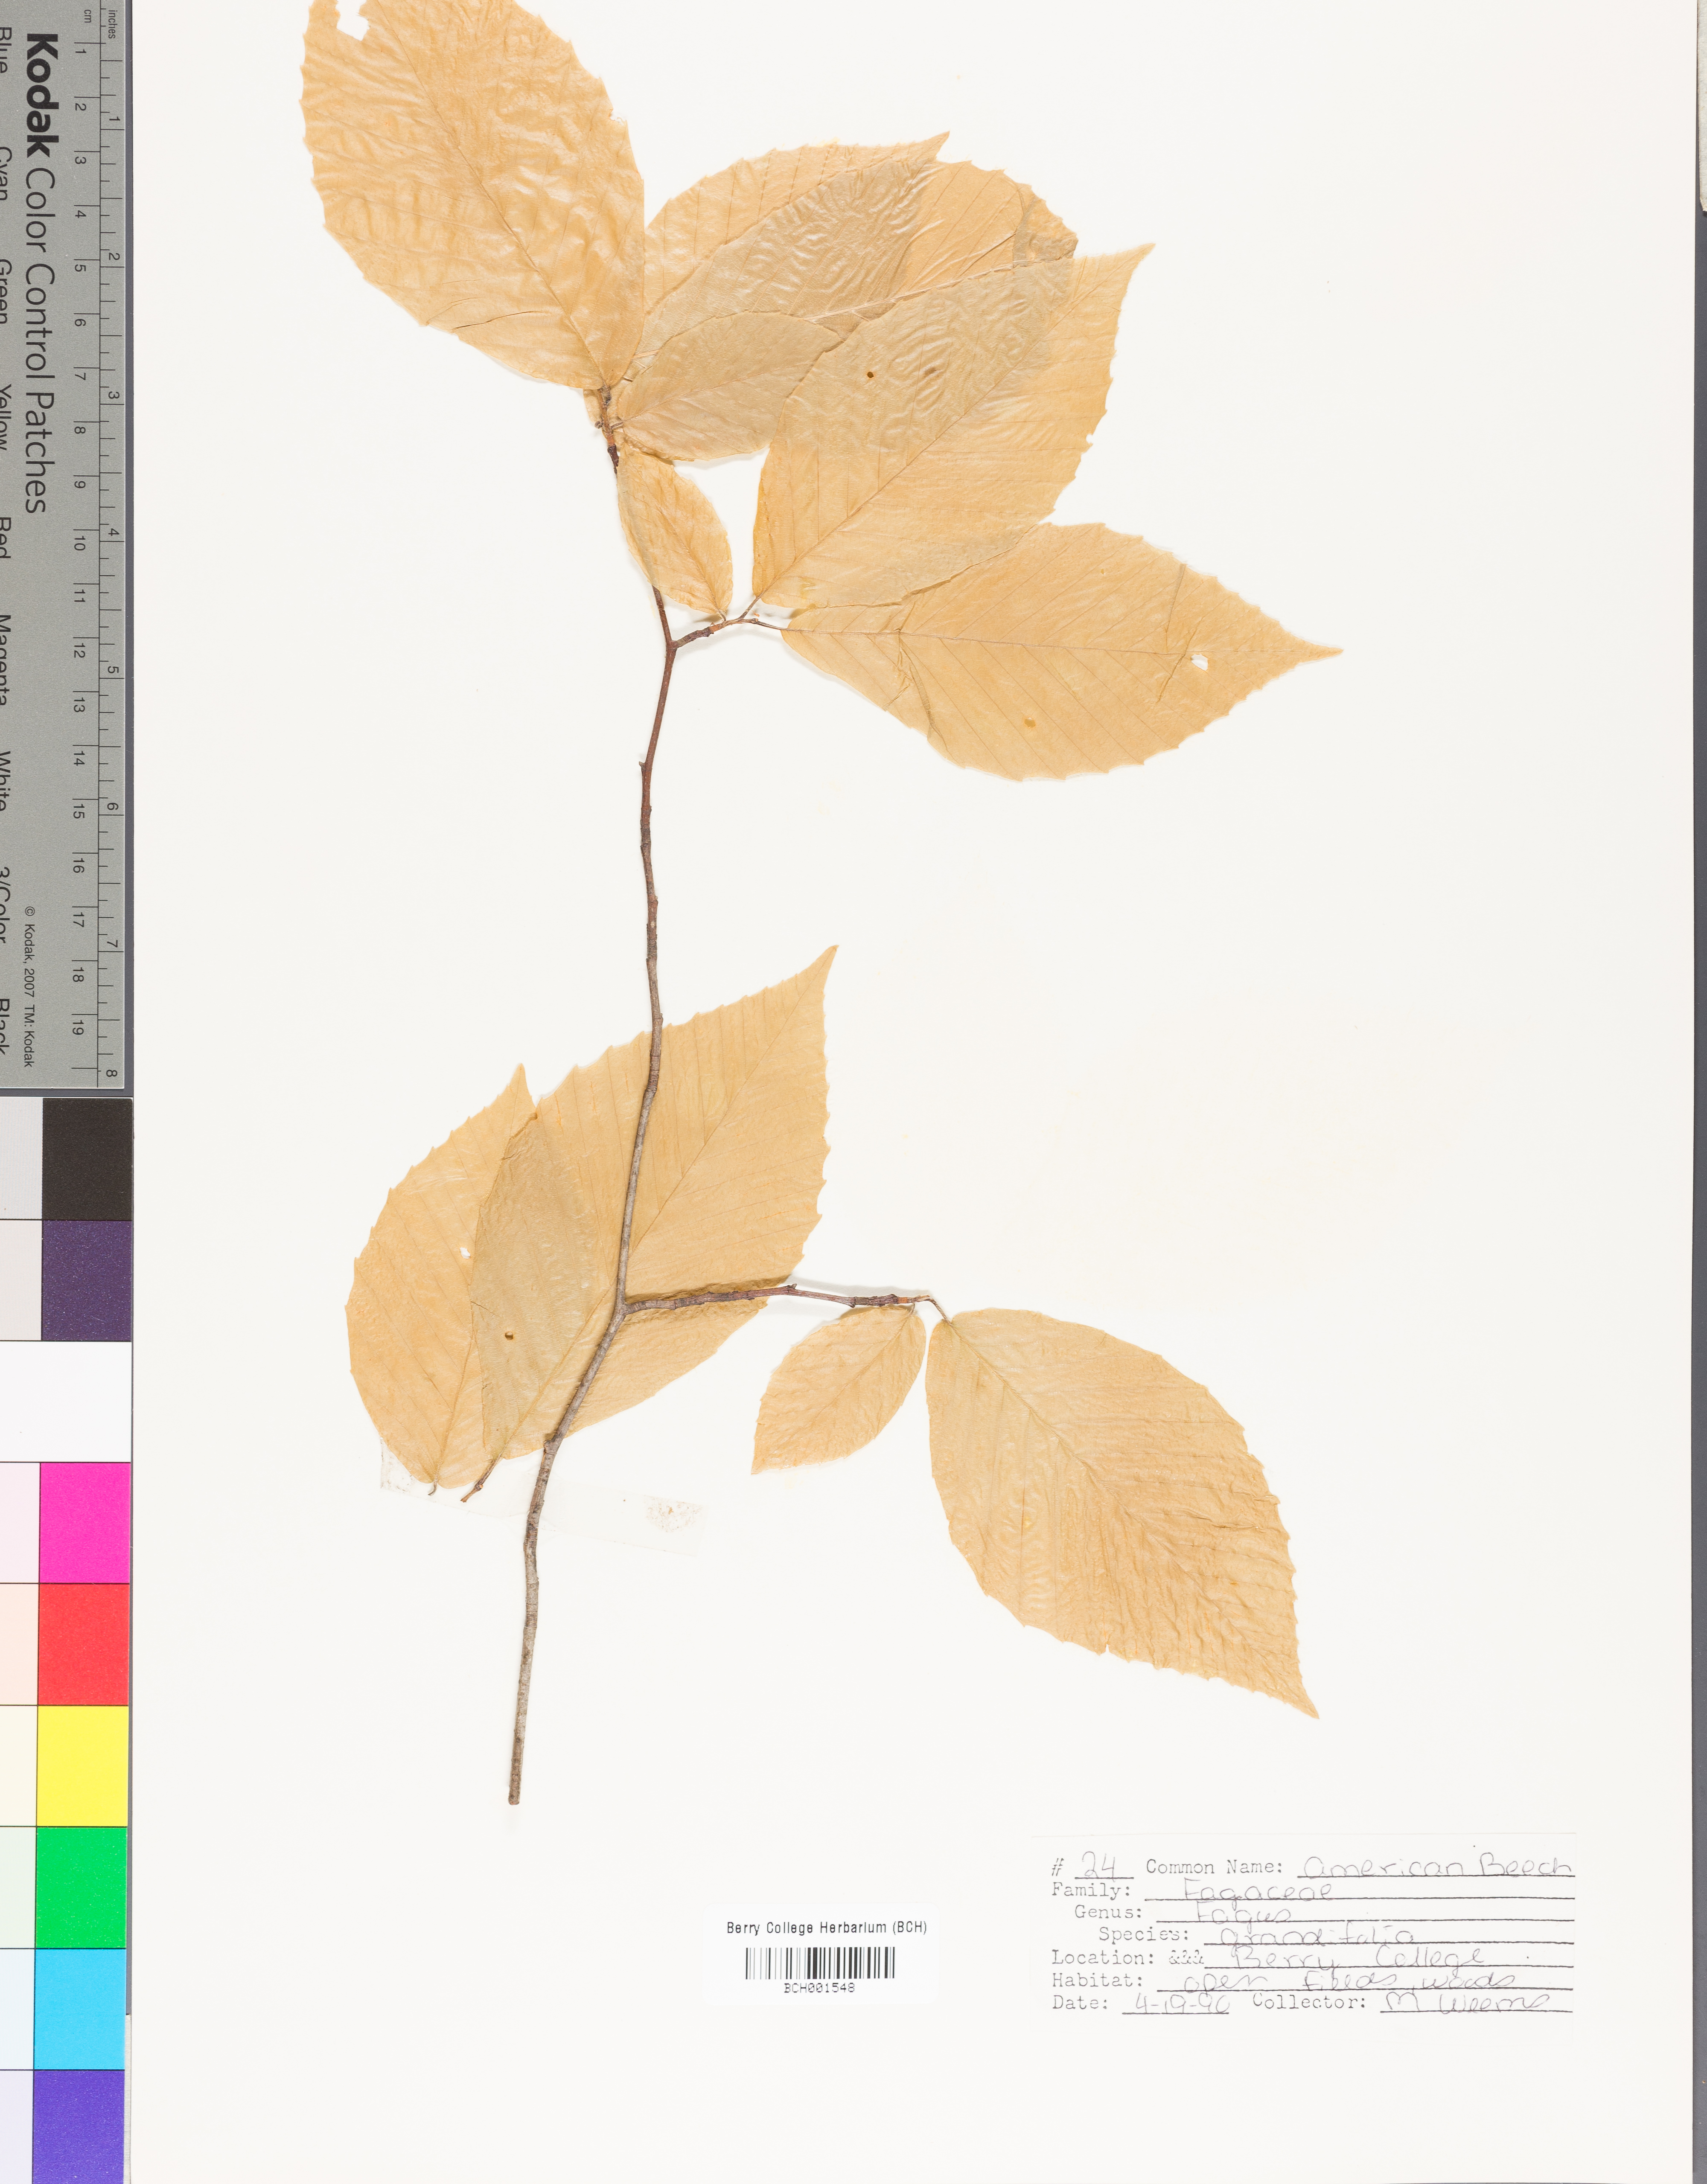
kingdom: Plantae
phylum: Tracheophyta
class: Magnoliopsida
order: Fagales
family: Fagaceae
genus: Fagus
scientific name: Fagus grandifolia
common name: American beech
